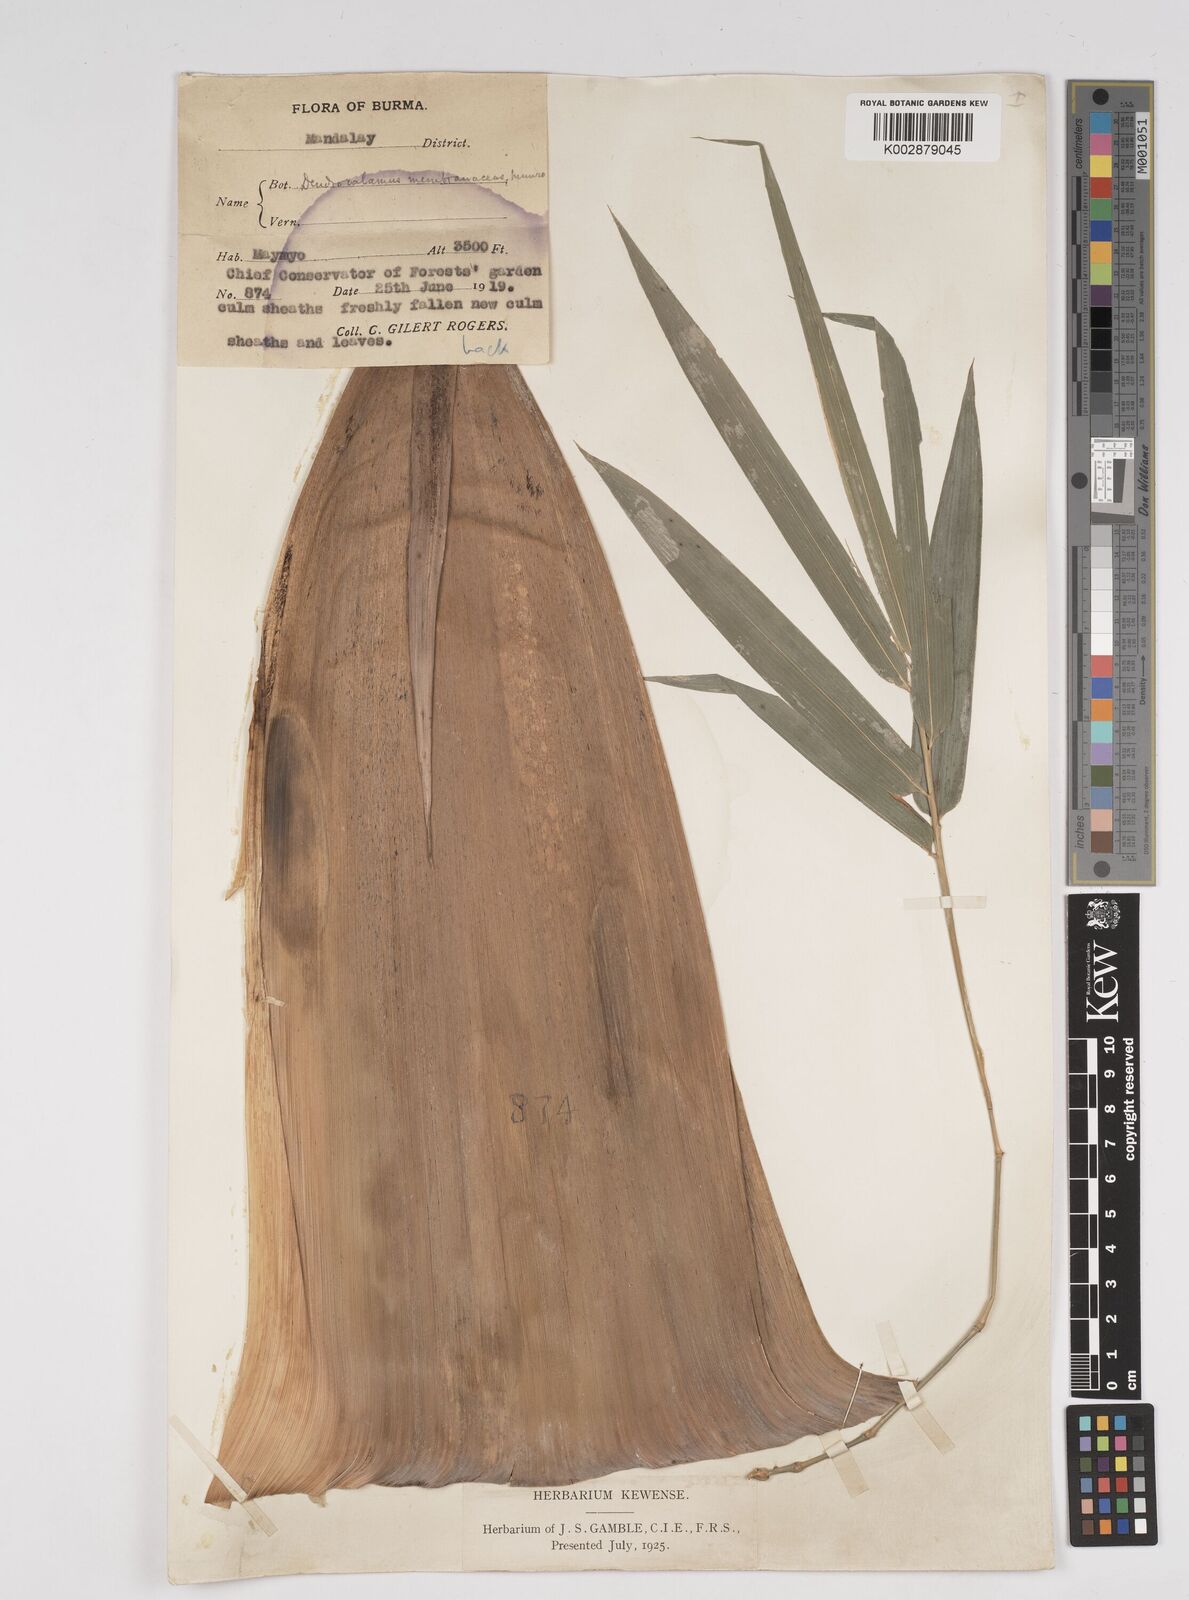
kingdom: Plantae
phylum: Tracheophyta
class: Liliopsida
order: Poales
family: Poaceae
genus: Dendrocalamus
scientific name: Dendrocalamus membranaceus
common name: White bamboo
